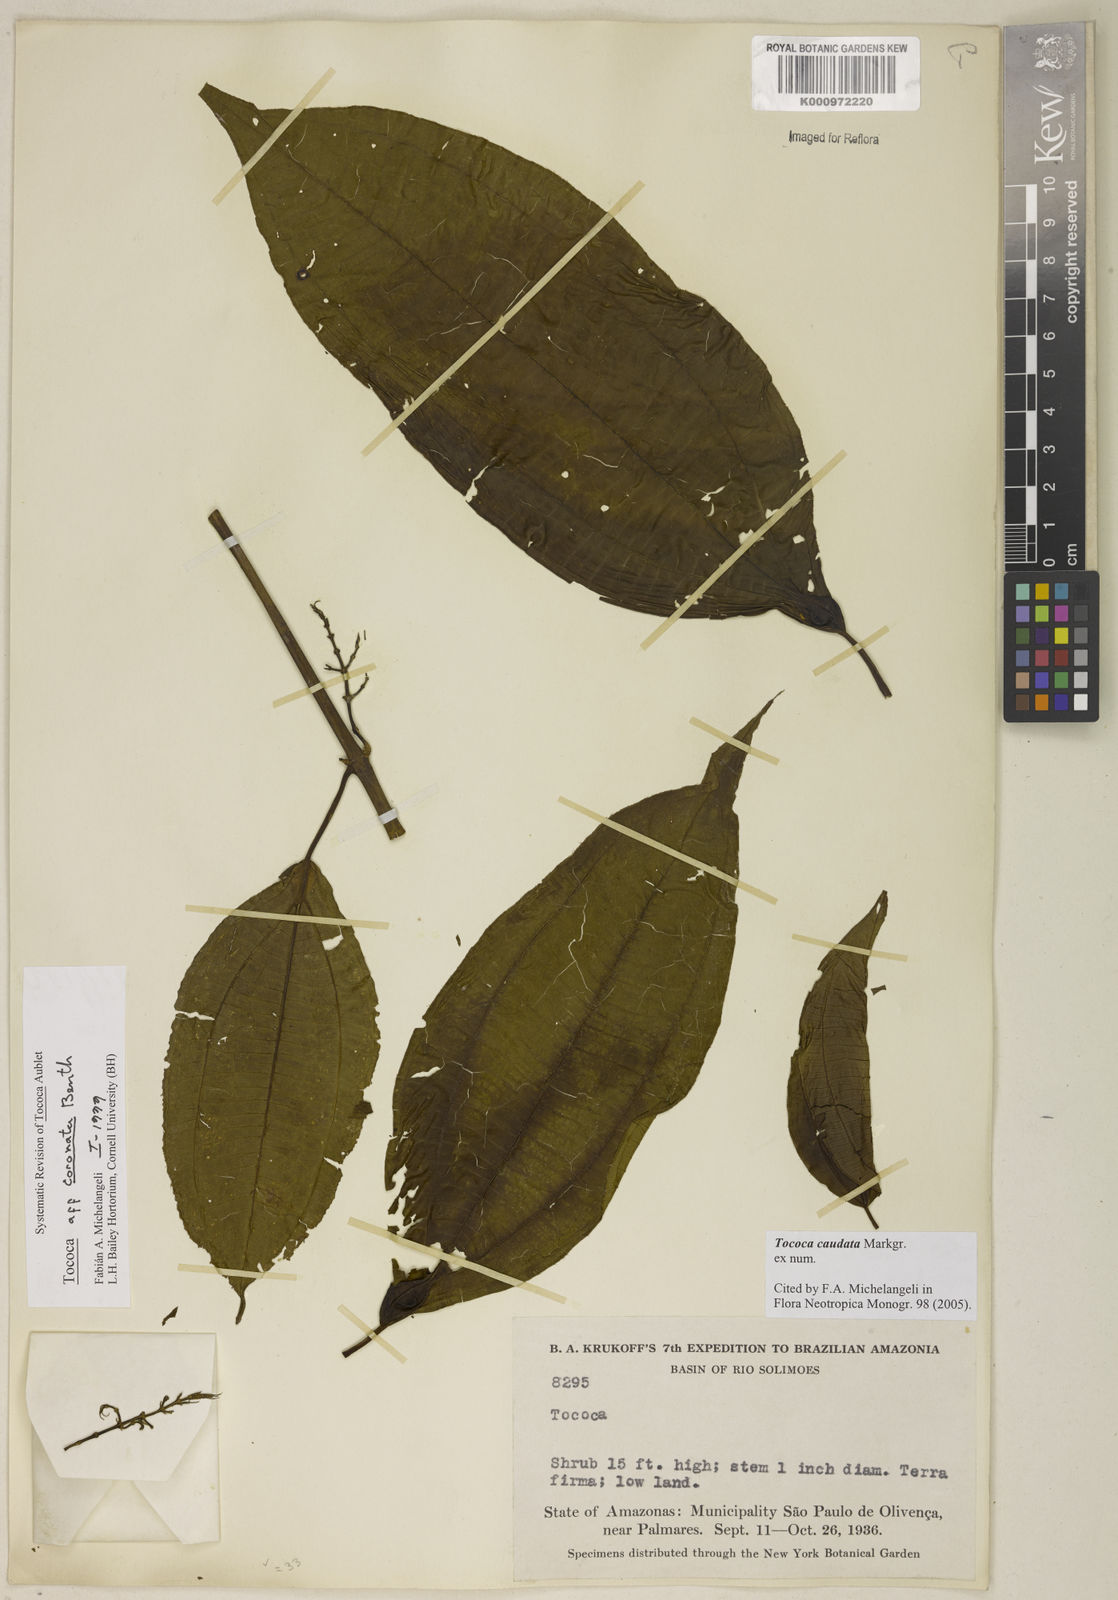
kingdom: Plantae
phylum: Tracheophyta
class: Magnoliopsida
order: Myrtales
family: Melastomataceae
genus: Miconia
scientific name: Miconia tococaudata
